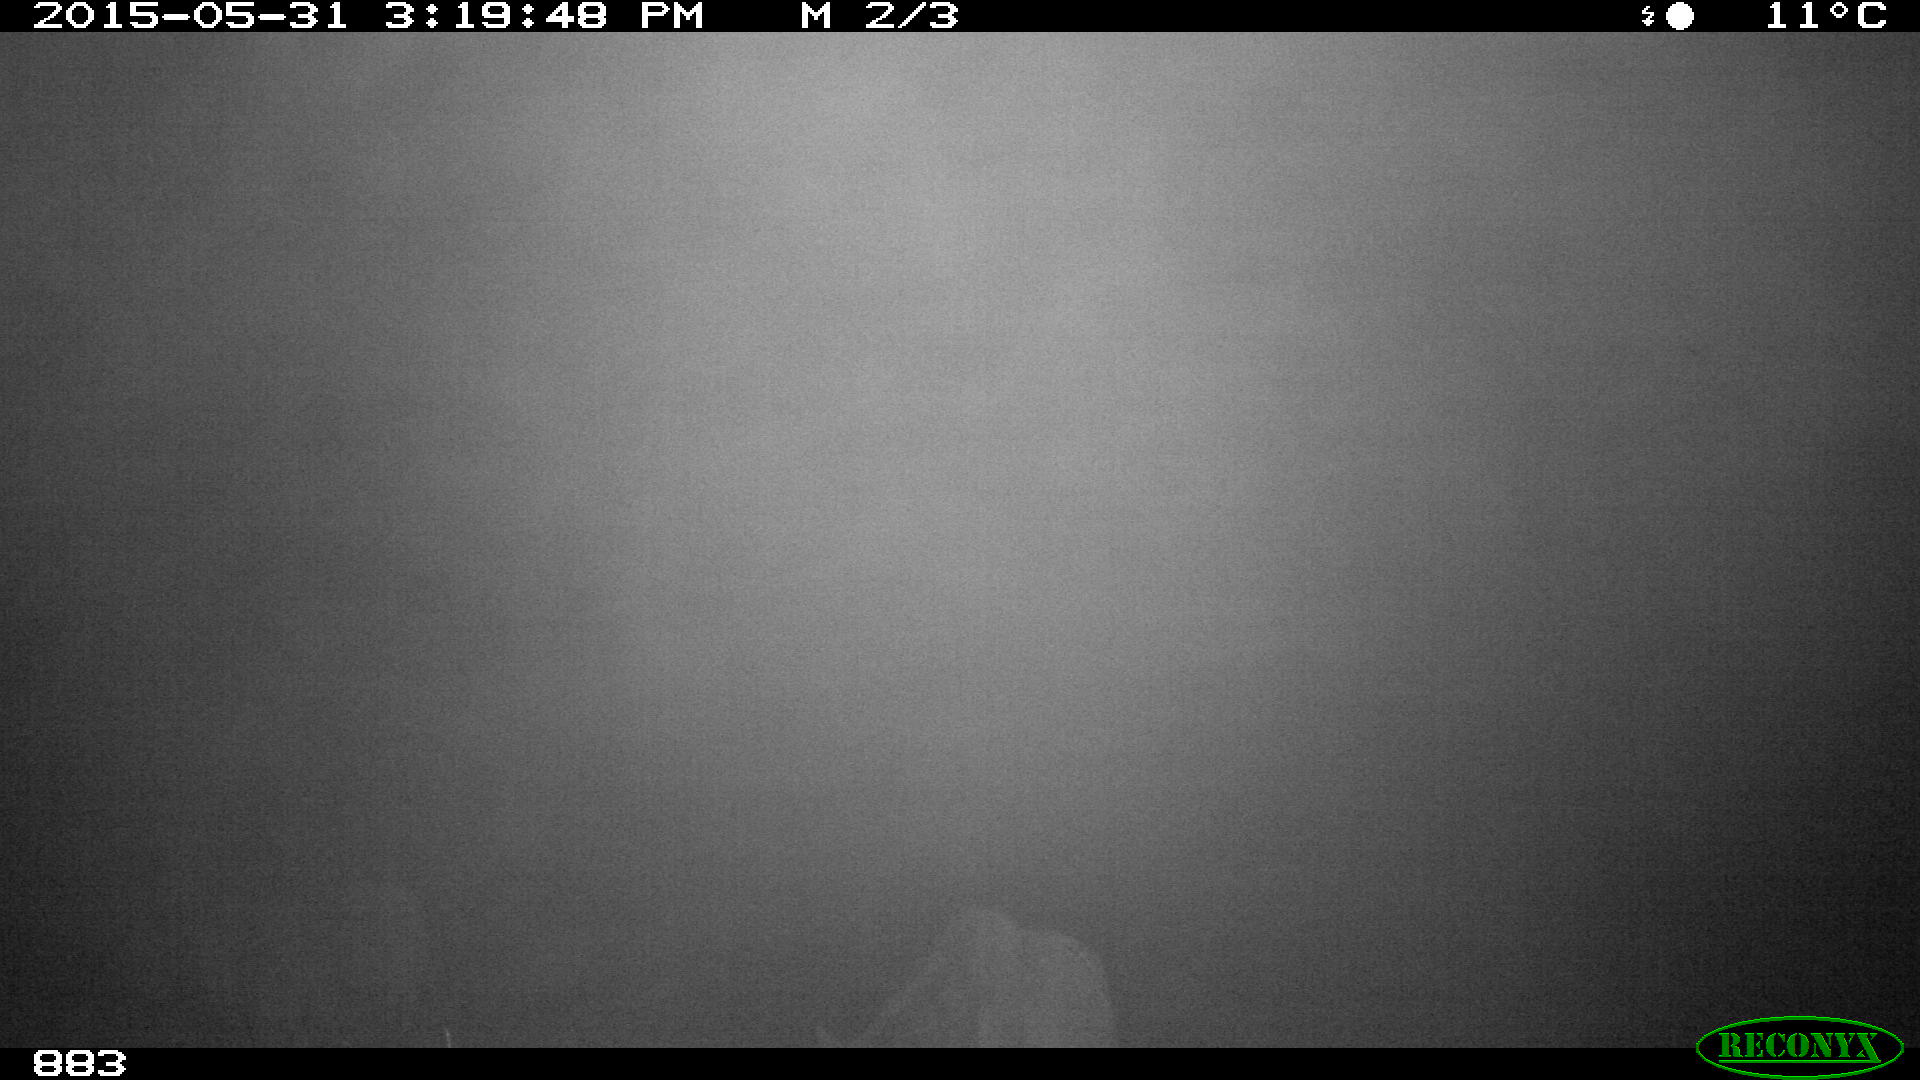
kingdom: Animalia
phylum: Chordata
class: Mammalia
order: Perissodactyla
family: Equidae
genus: Equus
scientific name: Equus caballus
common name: Horse
